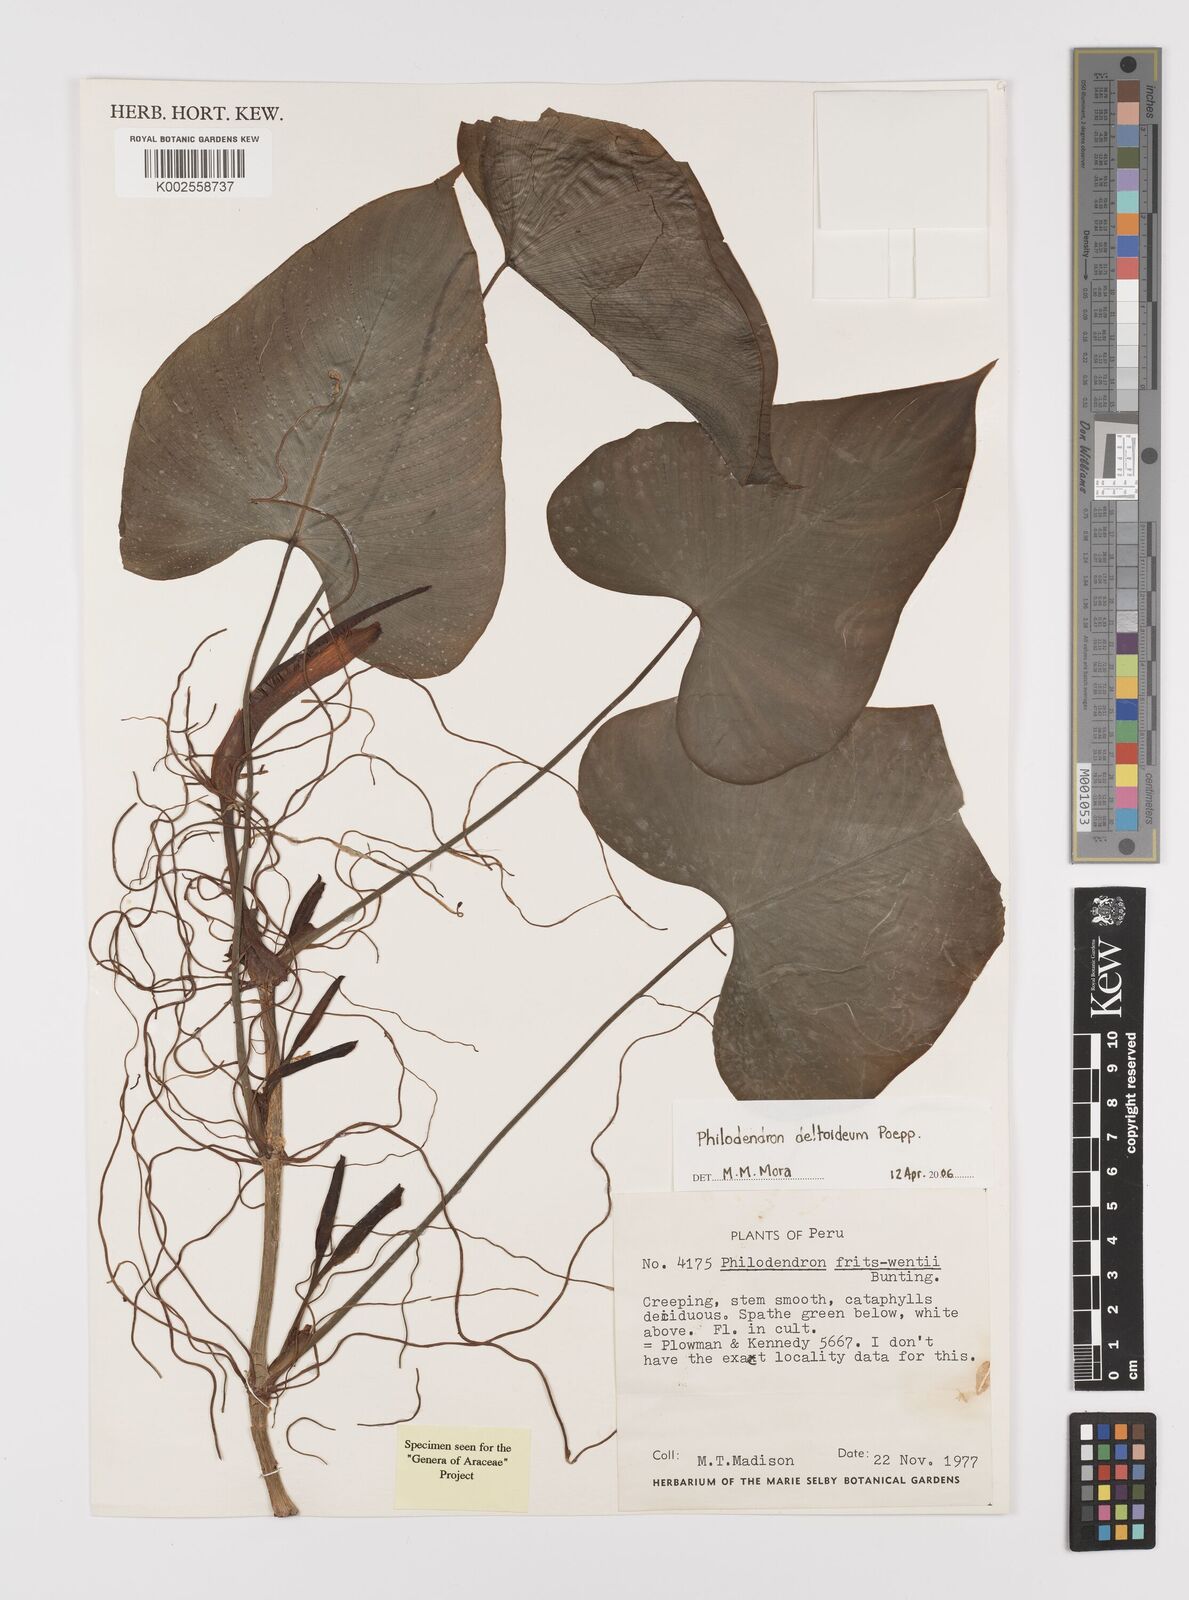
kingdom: Plantae
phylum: Tracheophyta
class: Liliopsida
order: Alismatales
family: Araceae
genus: Philodendron
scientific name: Philodendron deltoideum
